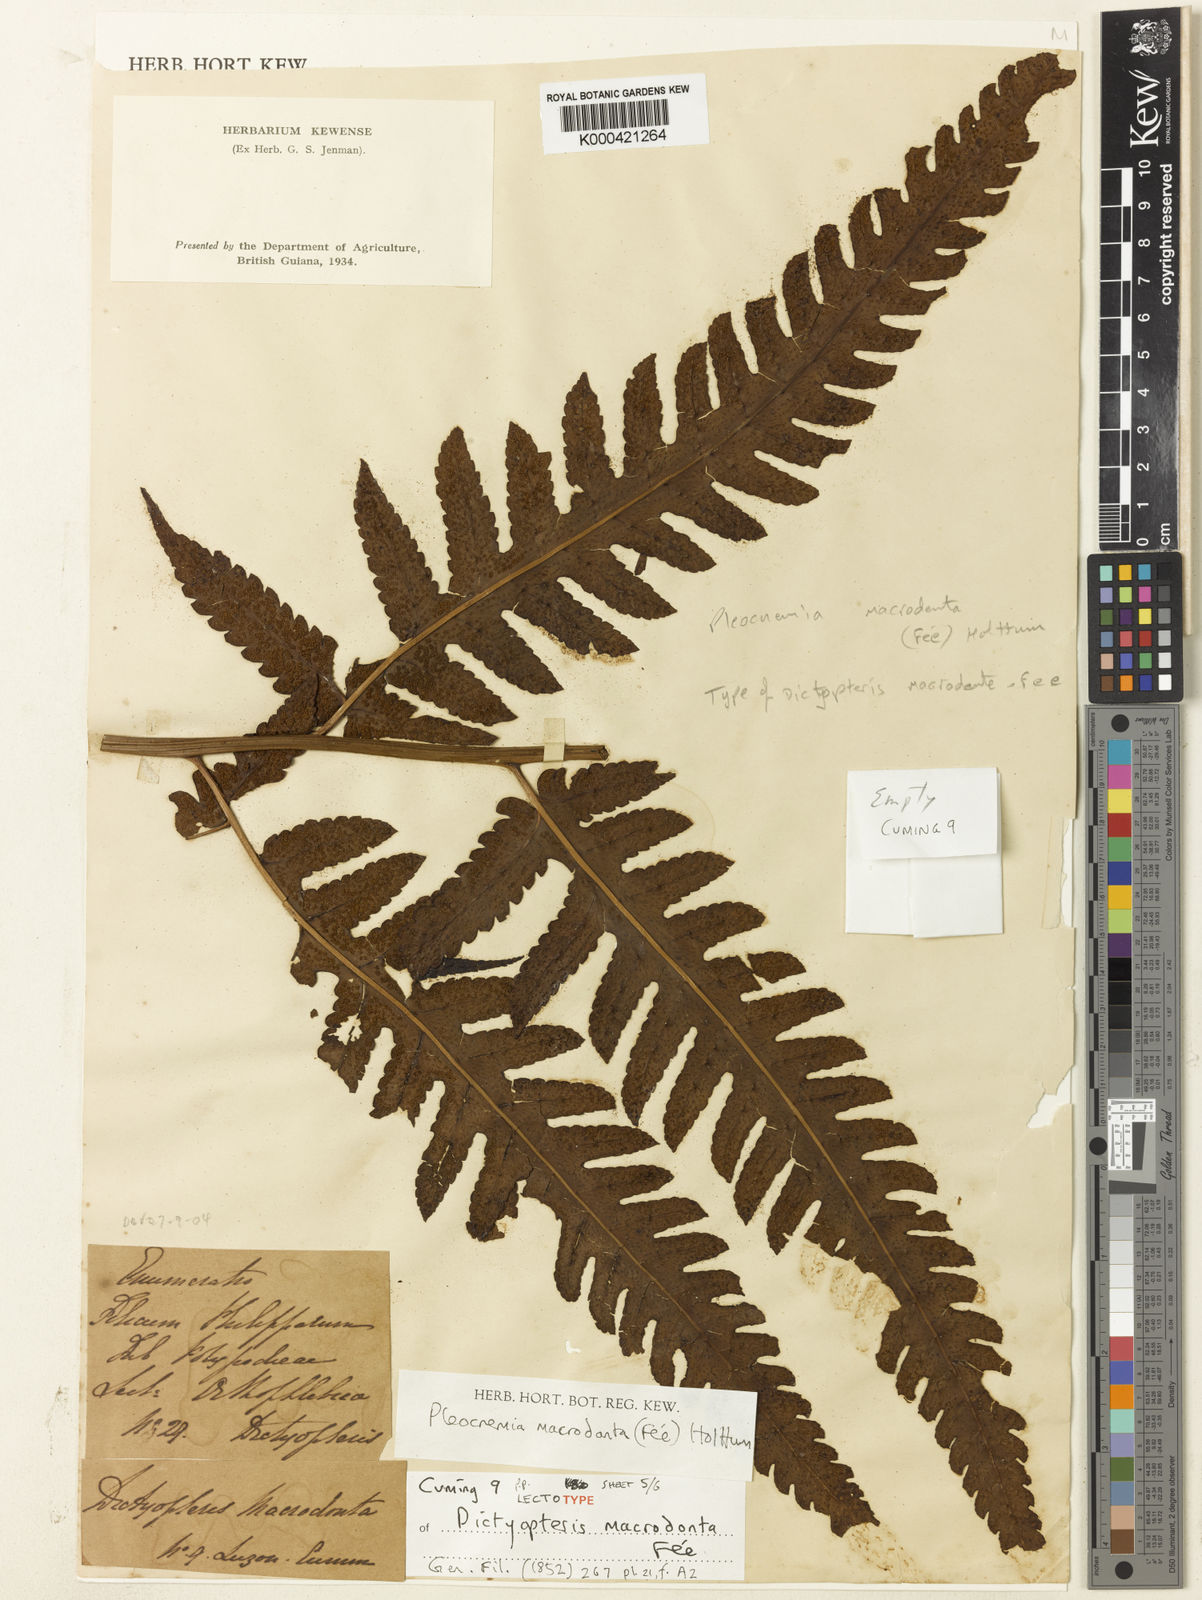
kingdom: Plantae
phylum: Tracheophyta
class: Polypodiopsida
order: Polypodiales
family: Dryopteridaceae
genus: Pleocnemia
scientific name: Pleocnemia
